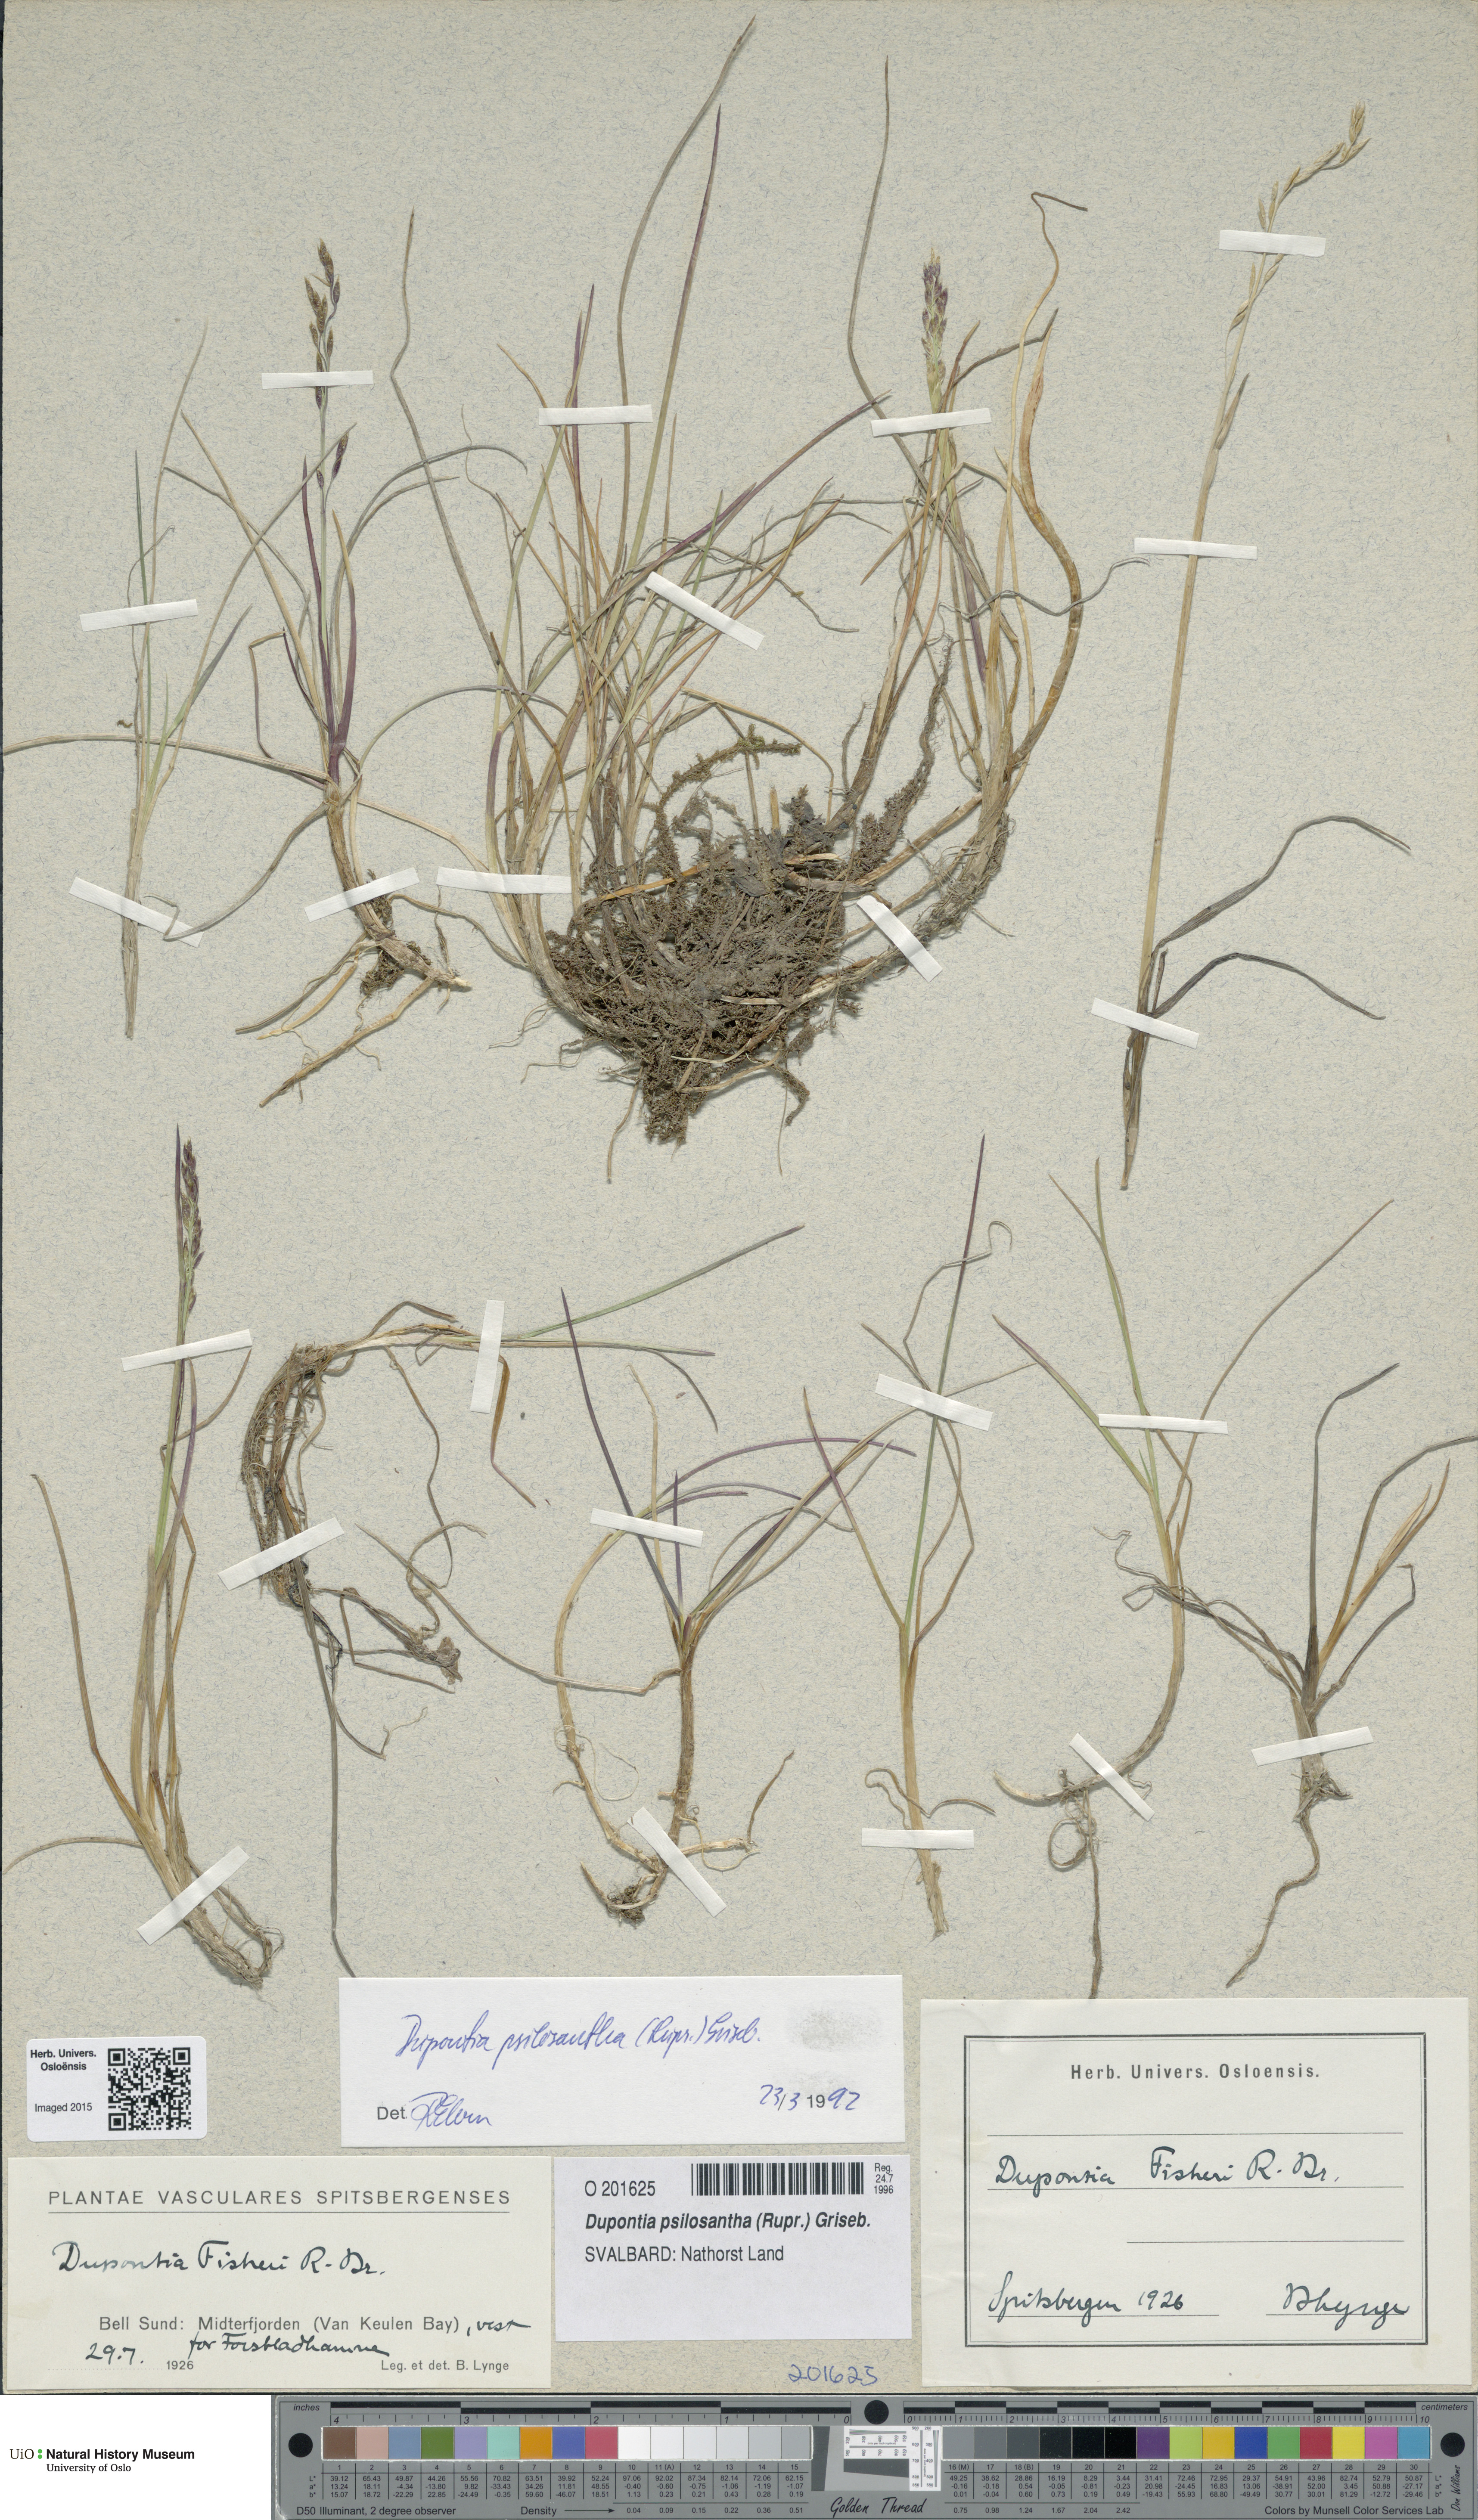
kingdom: Plantae
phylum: Tracheophyta
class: Liliopsida
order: Poales
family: Poaceae
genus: Dupontia
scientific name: Dupontia fisheri
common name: Tundra grass
